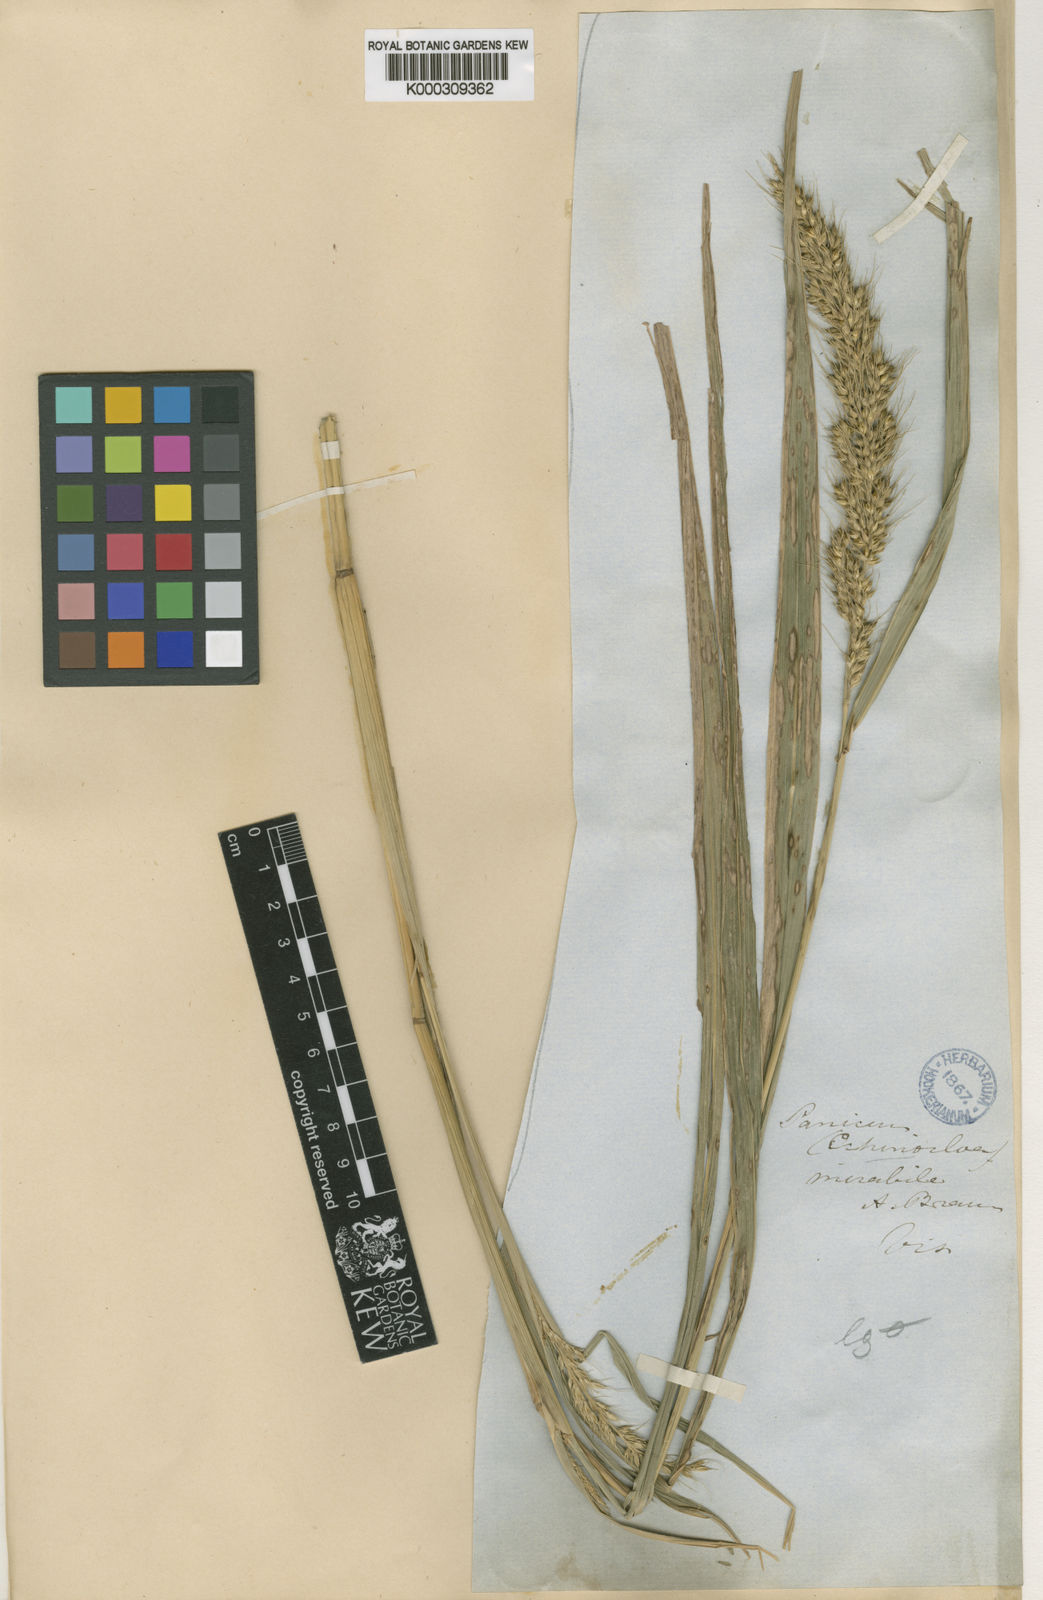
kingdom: Plantae
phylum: Tracheophyta
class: Liliopsida
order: Poales
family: Poaceae
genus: Echinochloa
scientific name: Echinochloa oryzoides
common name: Early water grass
